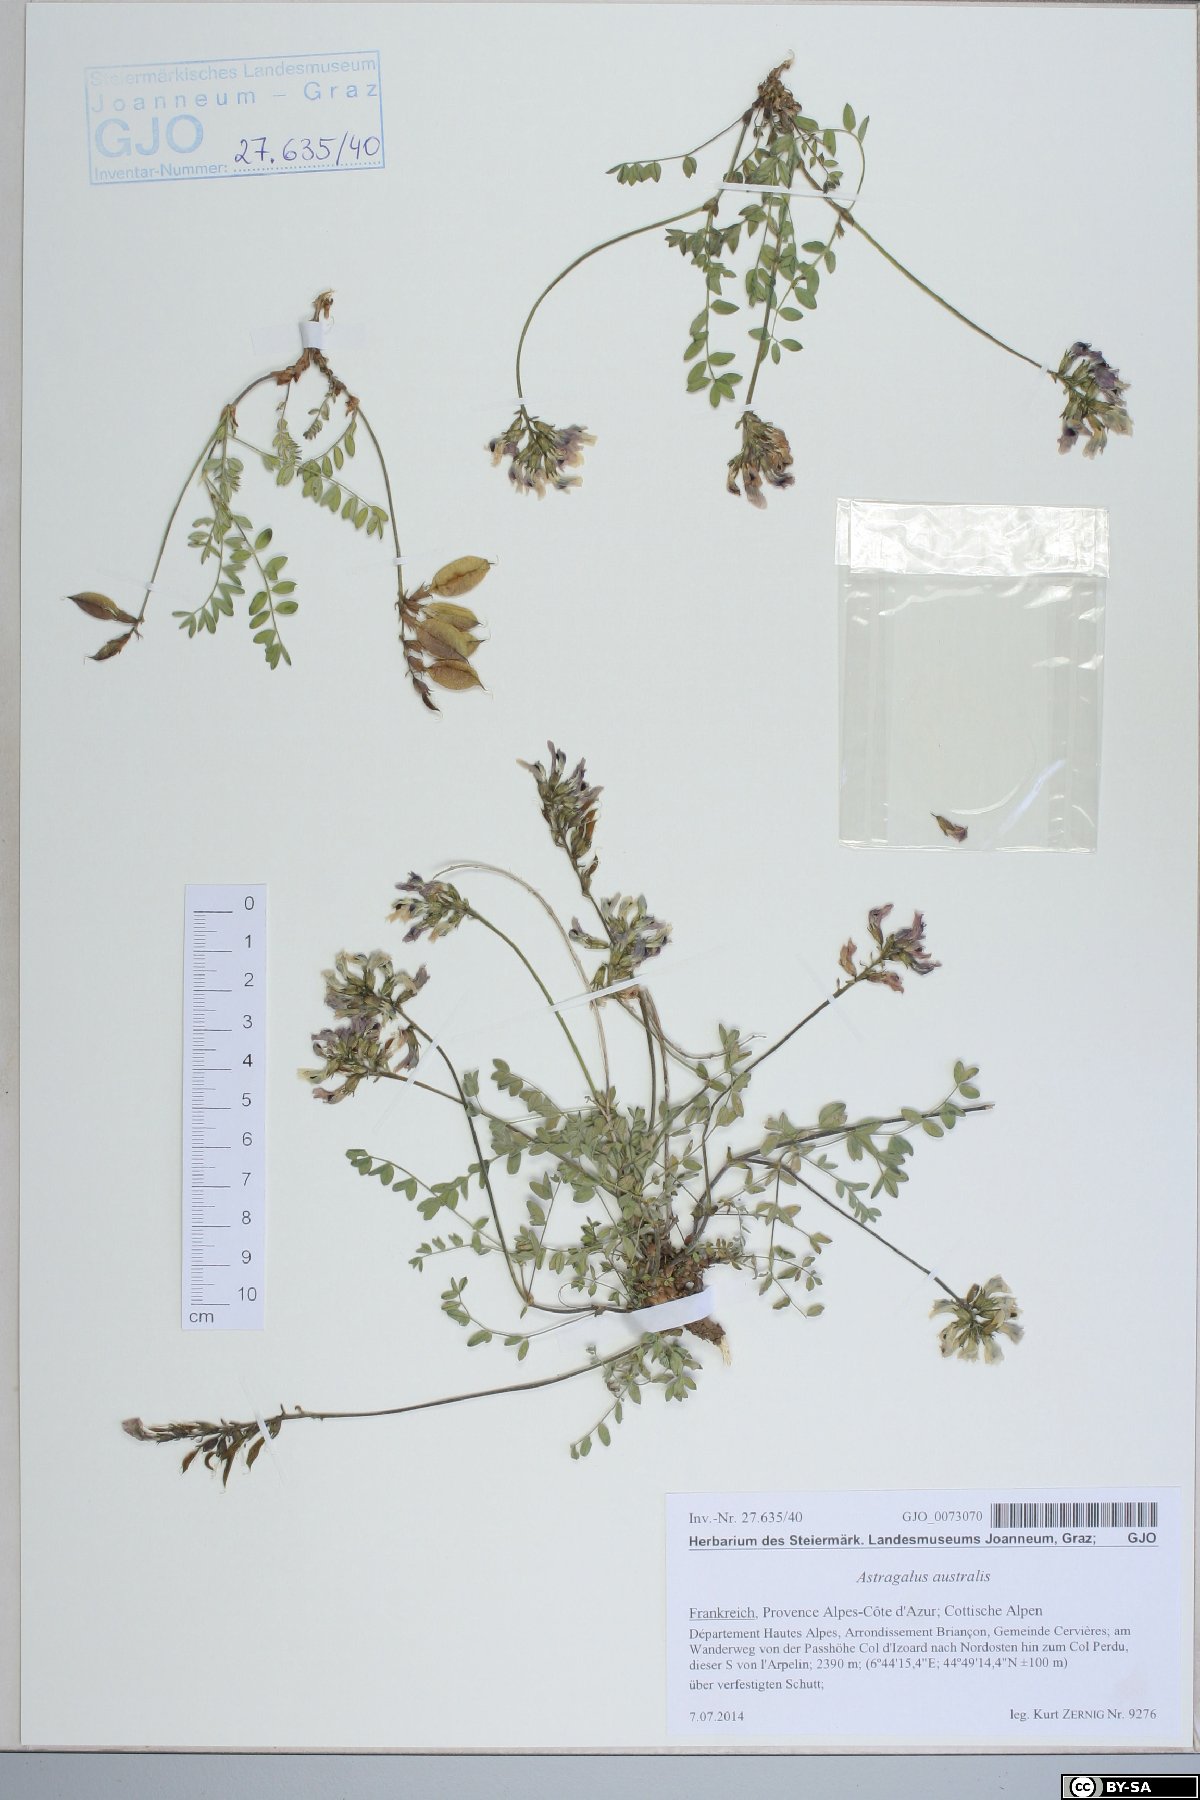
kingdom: Plantae
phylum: Tracheophyta
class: Magnoliopsida
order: Fabales
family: Fabaceae
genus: Astragalus
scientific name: Astragalus australis
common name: Indian milk-vetch
